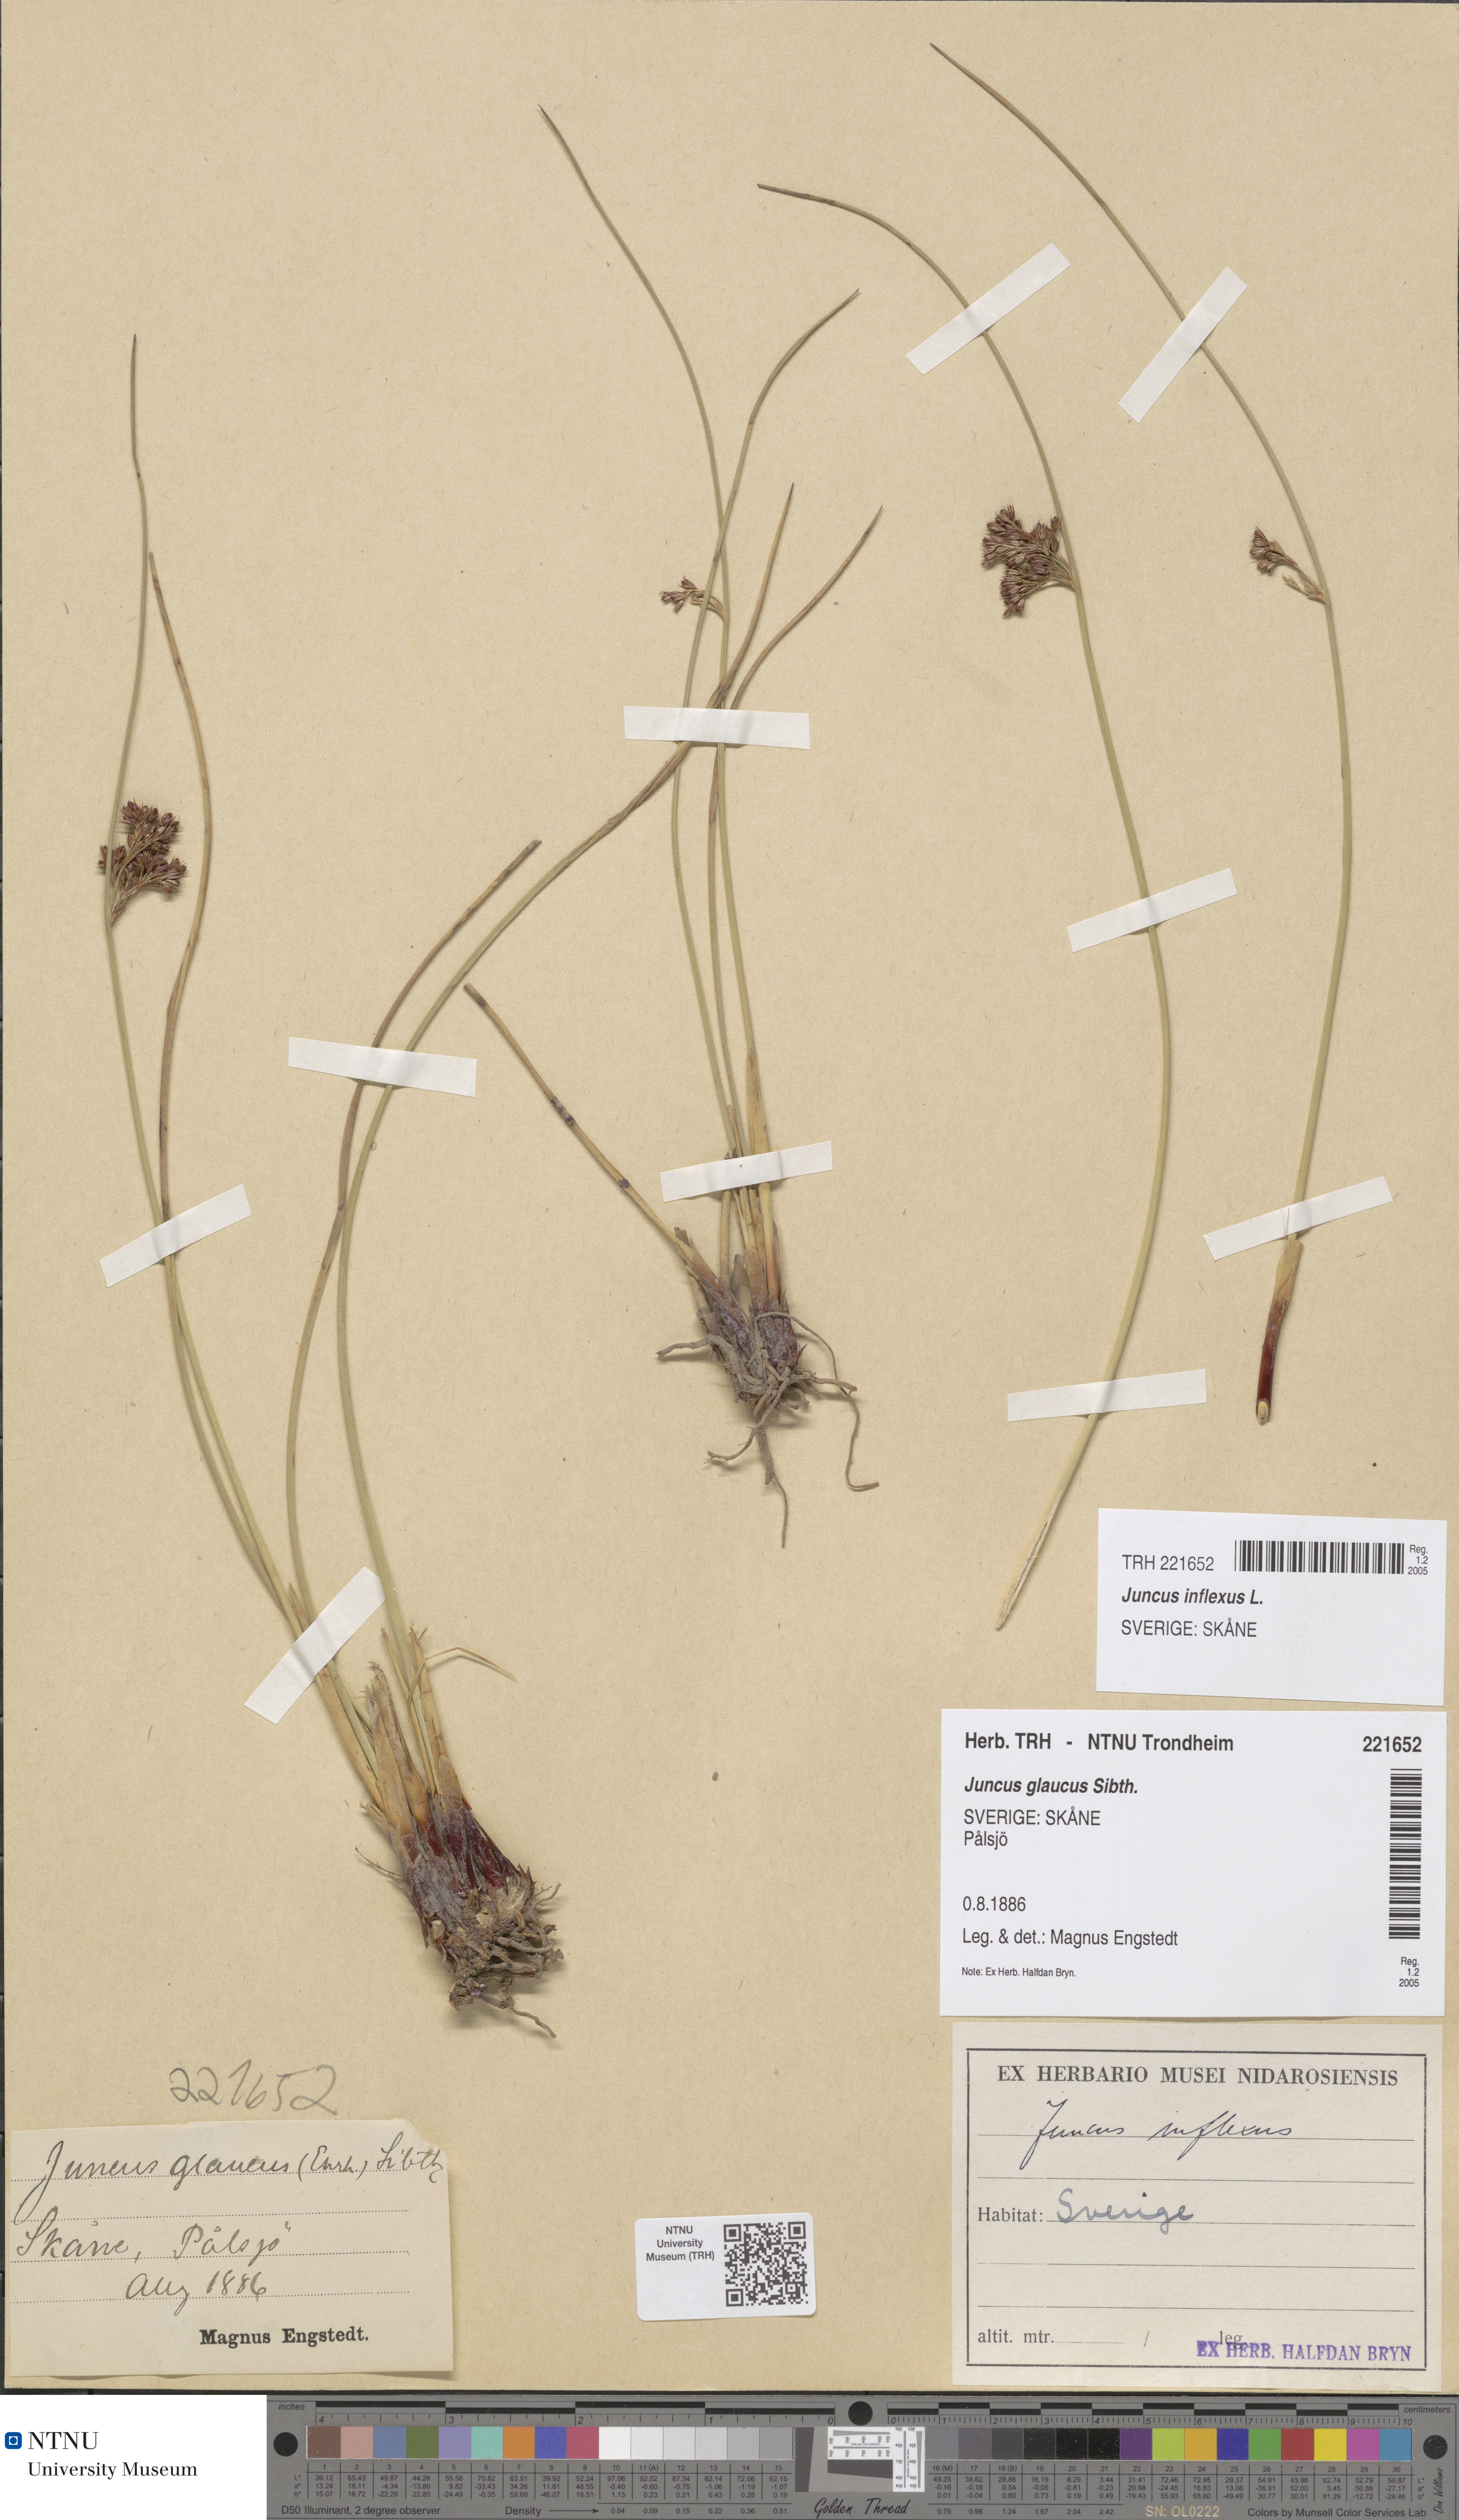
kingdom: Plantae
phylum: Tracheophyta
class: Liliopsida
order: Poales
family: Juncaceae
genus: Juncus
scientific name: Juncus inflexus
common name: Hard rush
